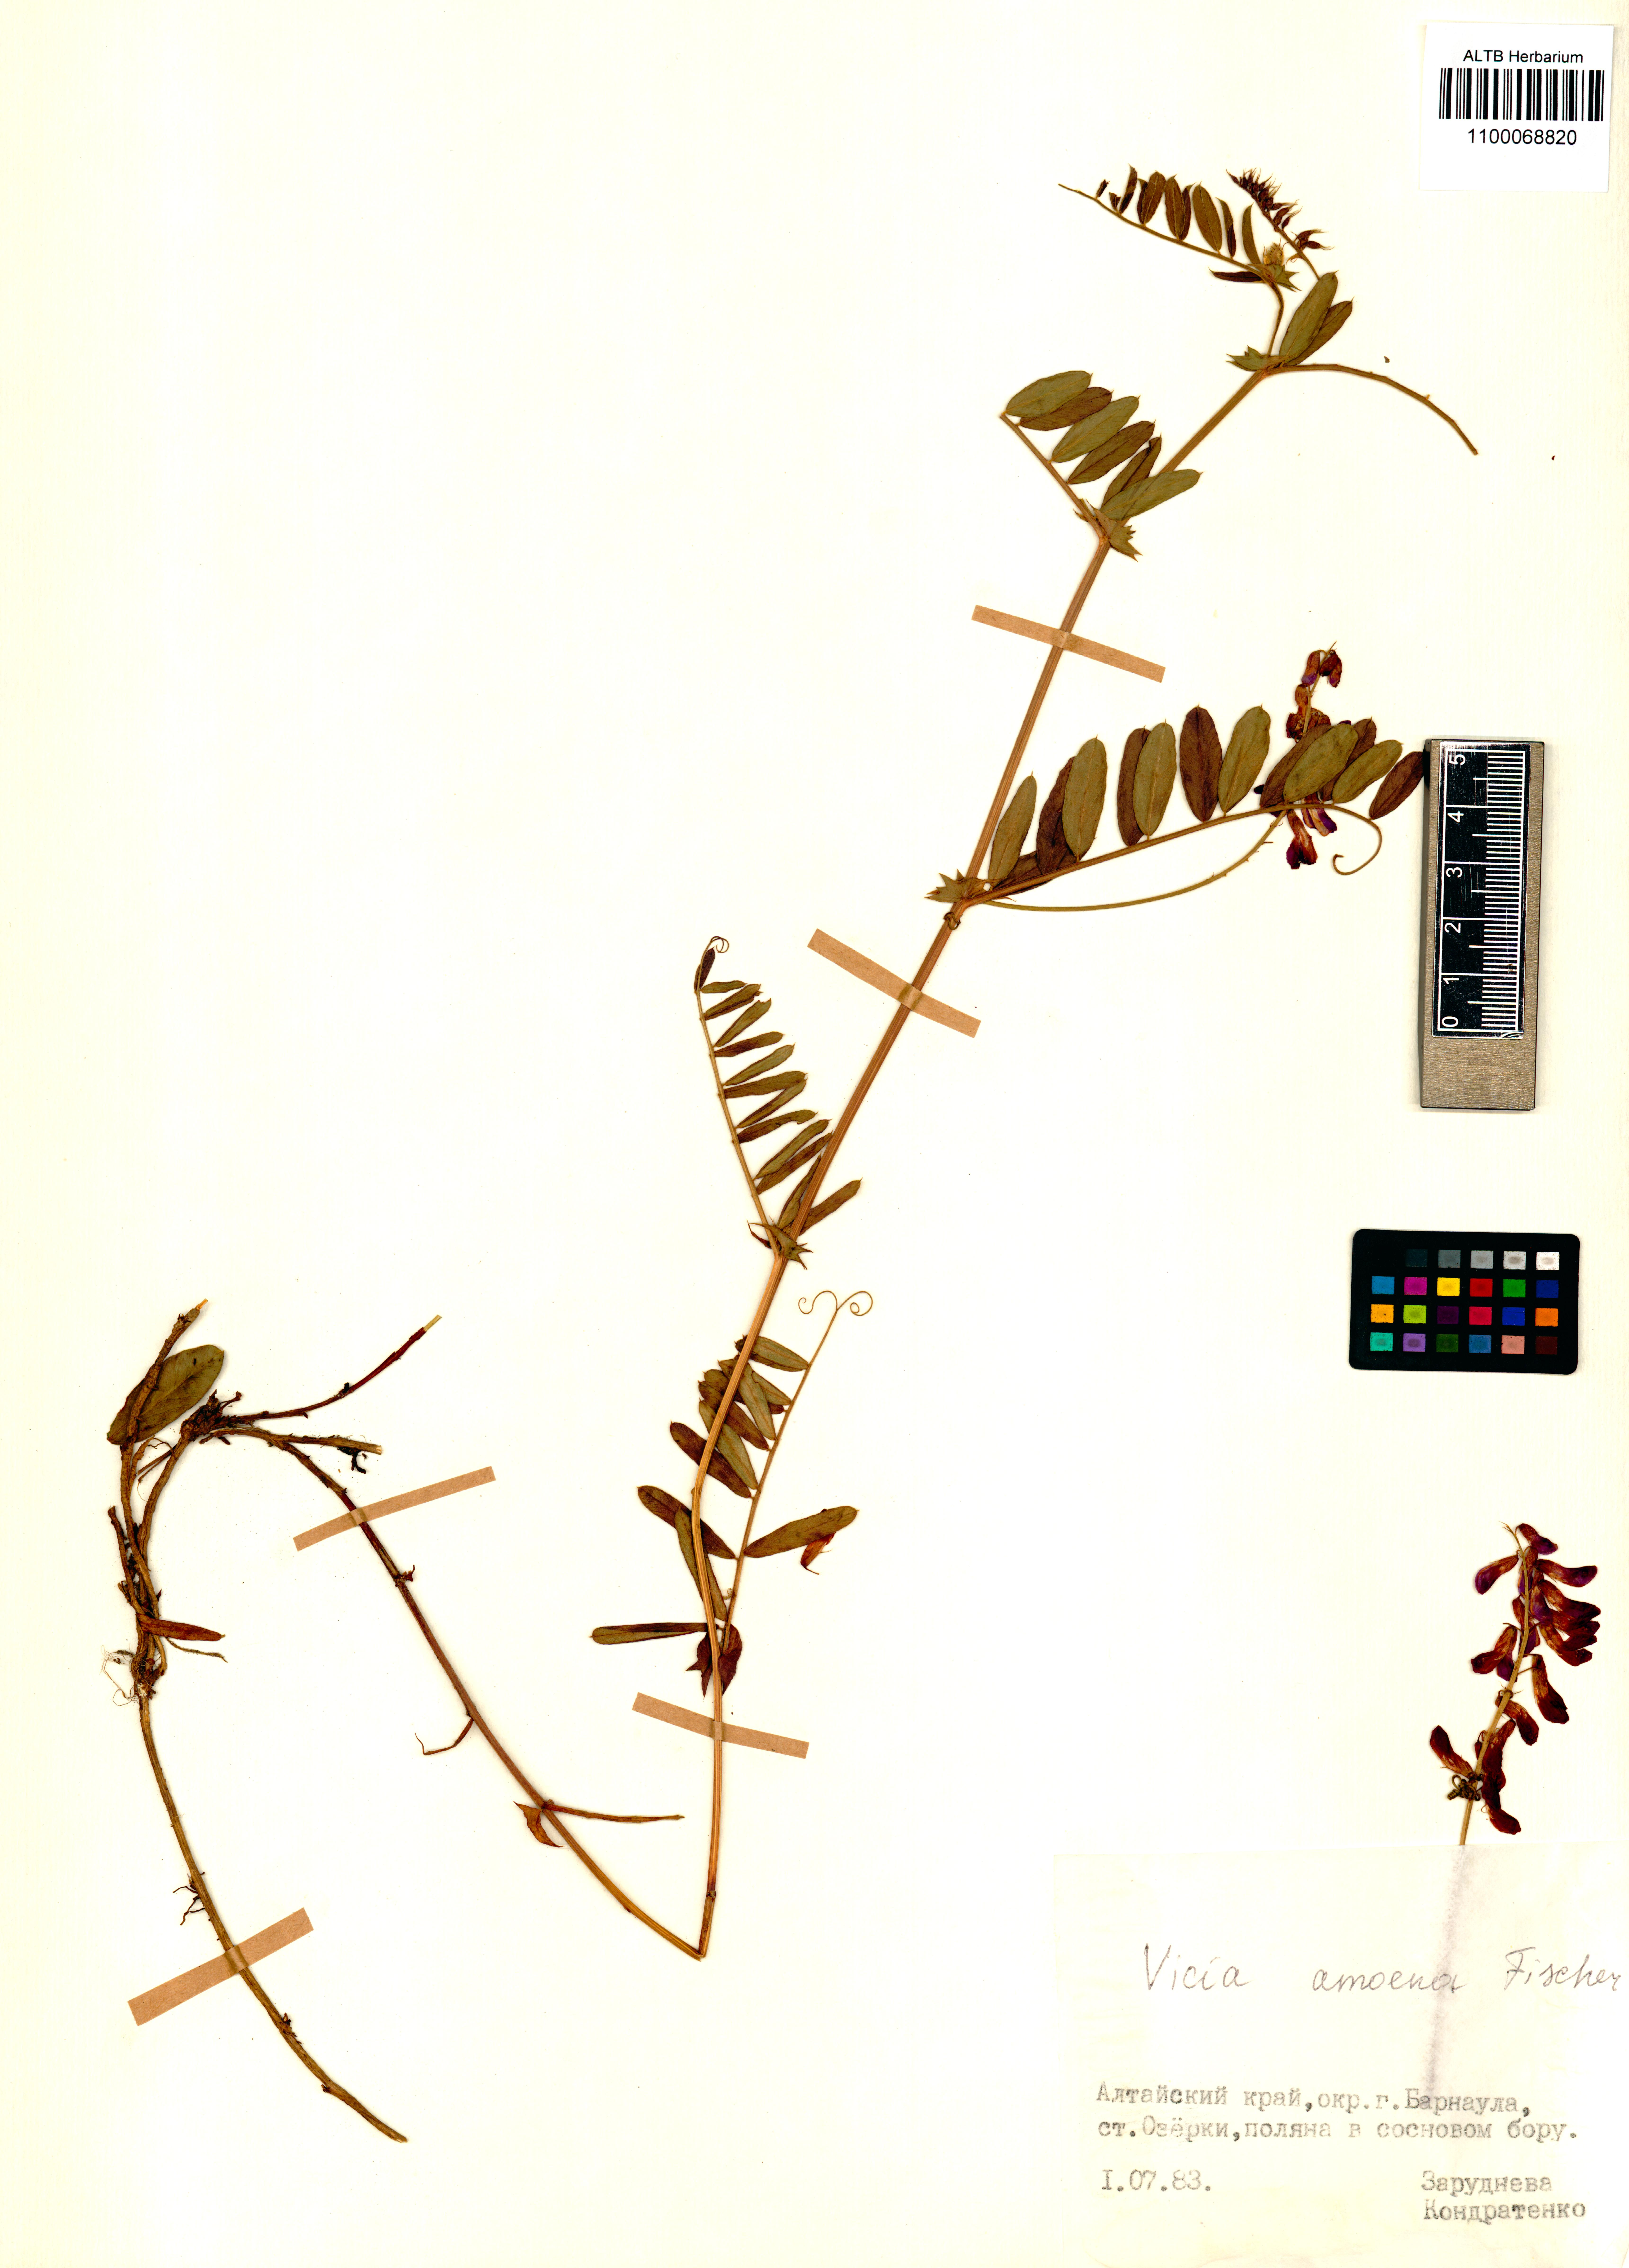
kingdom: Plantae
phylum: Tracheophyta
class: Magnoliopsida
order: Fabales
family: Fabaceae
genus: Vicia
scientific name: Vicia amoena
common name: Cheder ebs
